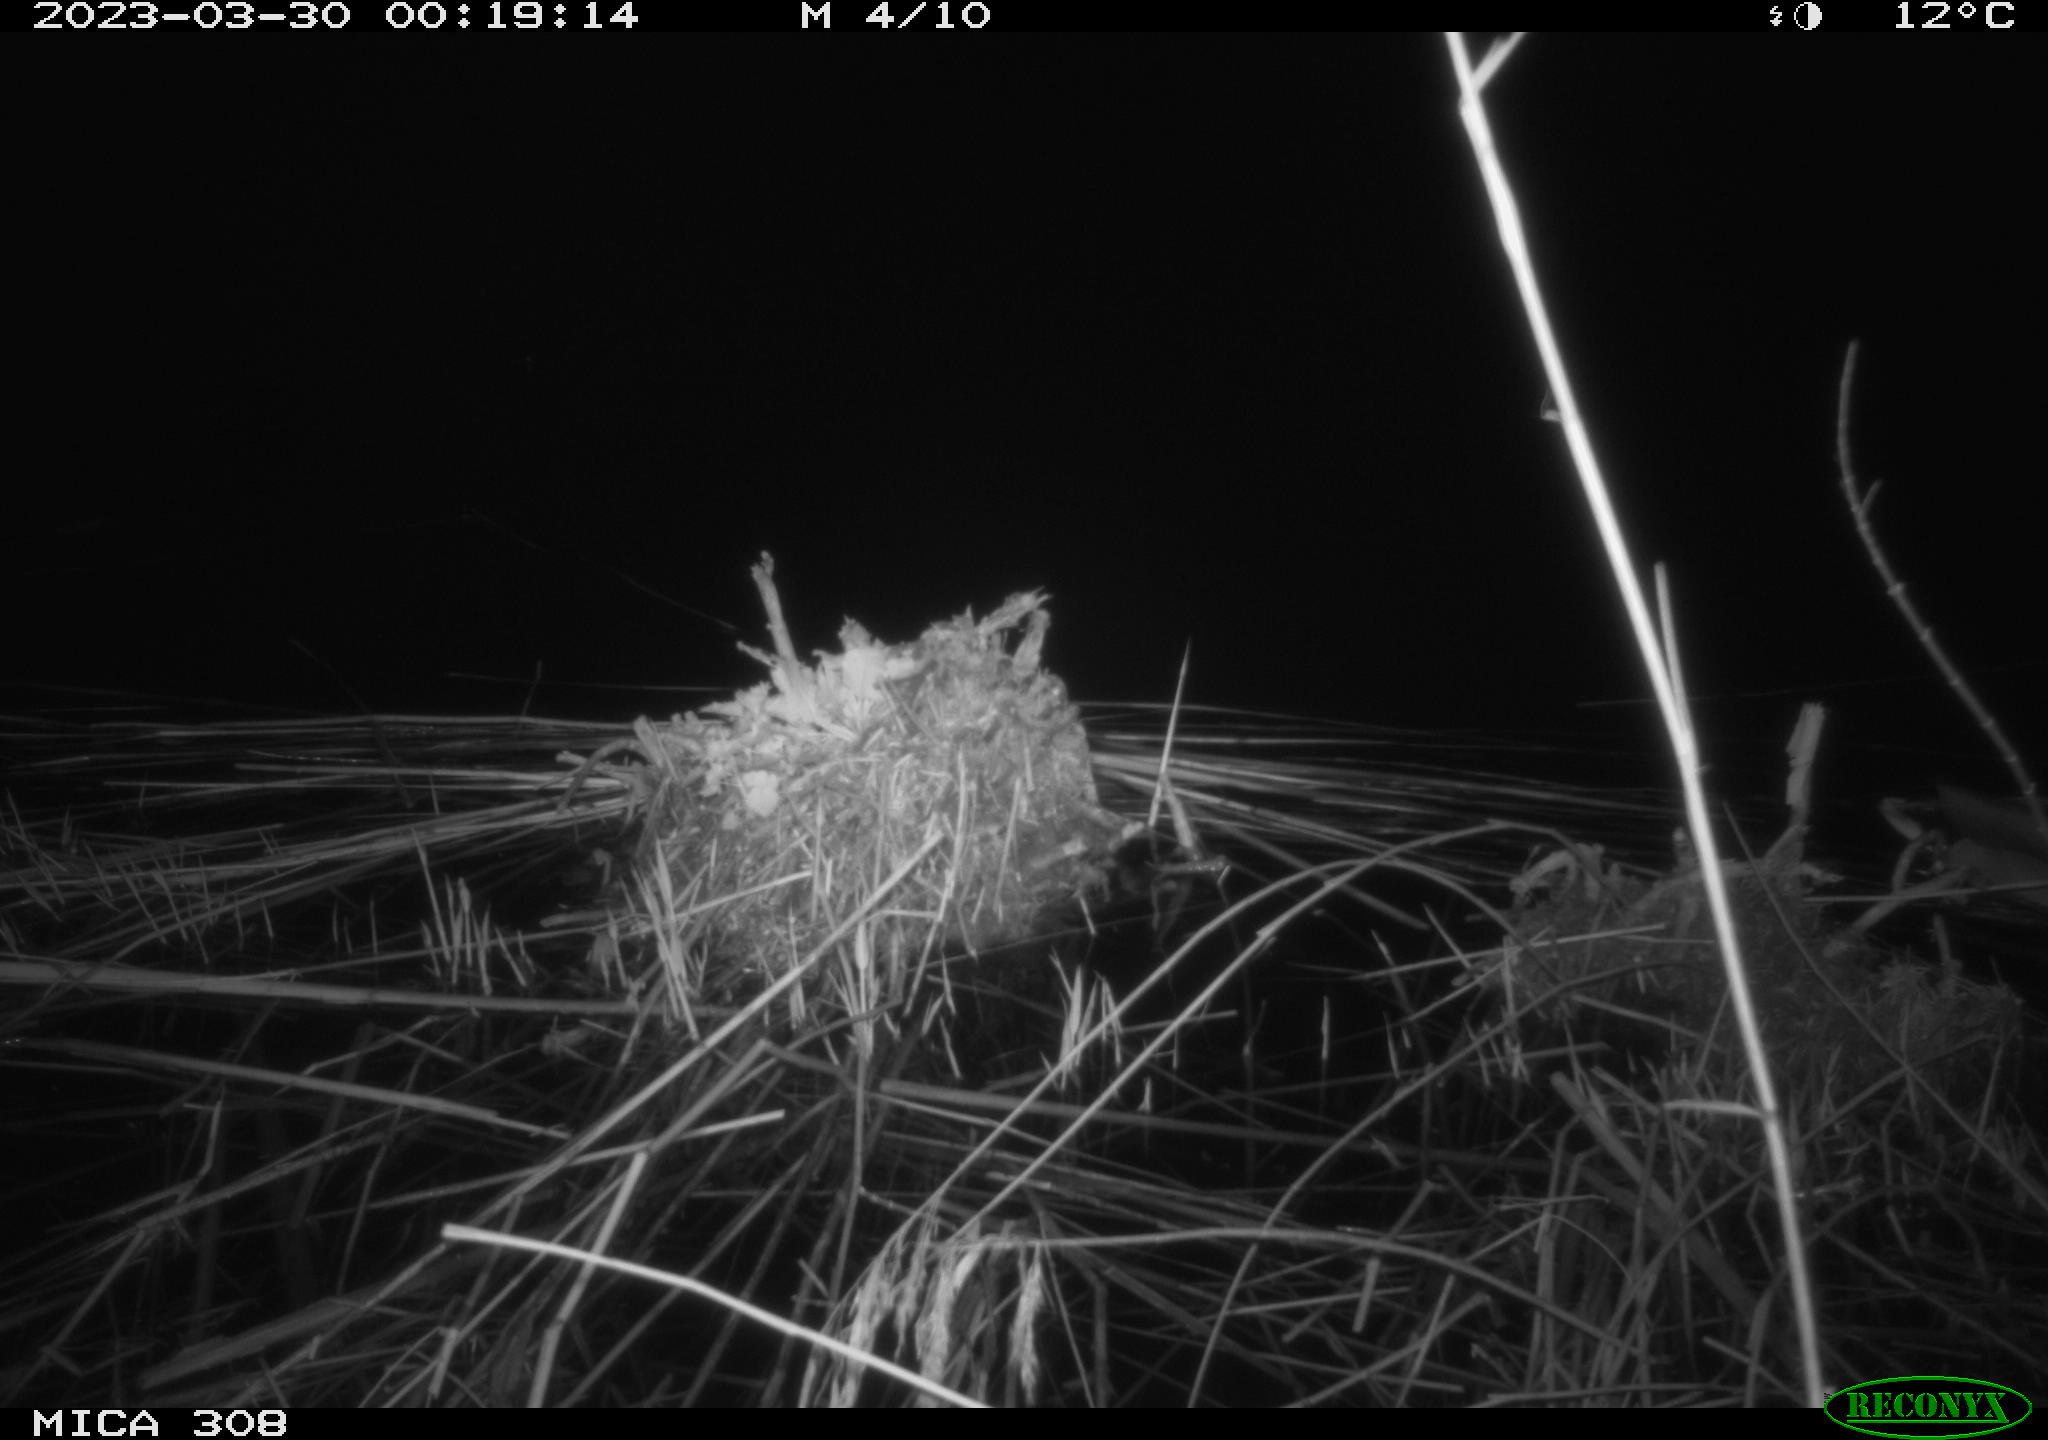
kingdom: Animalia
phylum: Chordata
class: Mammalia
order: Rodentia
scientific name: Rodentia
